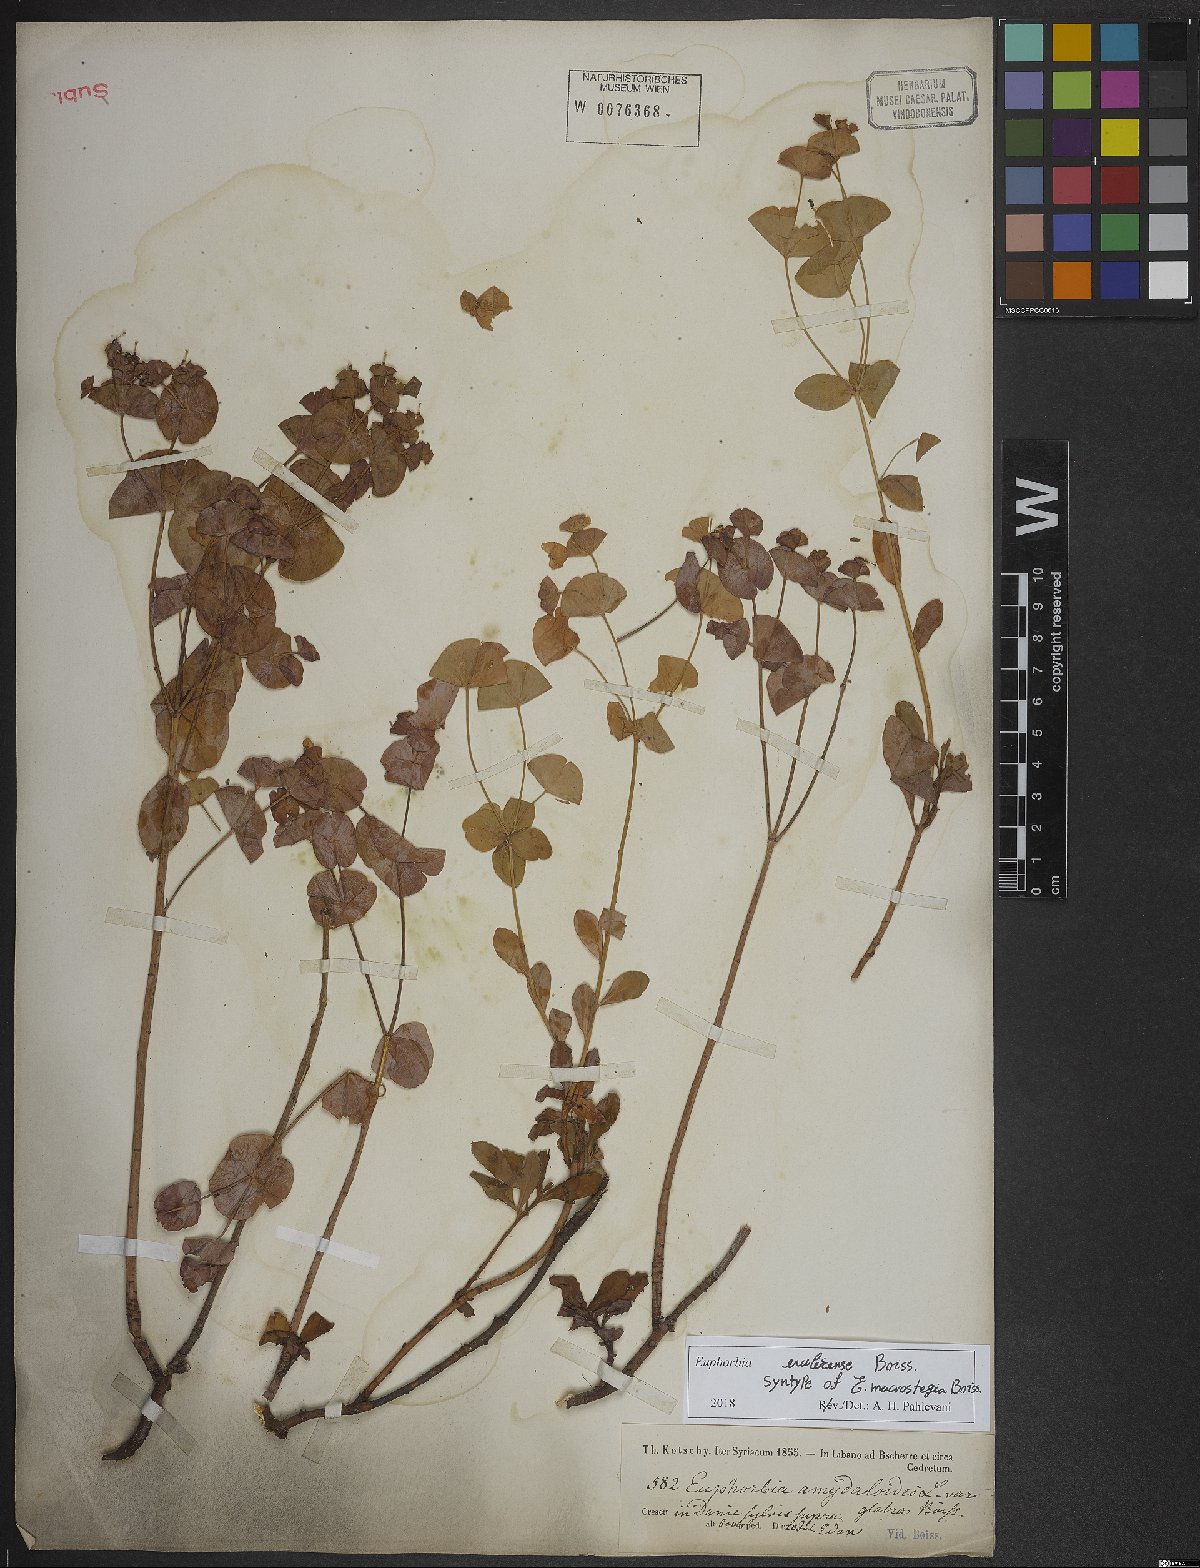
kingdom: Plantae
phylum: Tracheophyta
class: Magnoliopsida
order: Malpighiales
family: Euphorbiaceae
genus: Euphorbia
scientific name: Euphorbia erubescens
